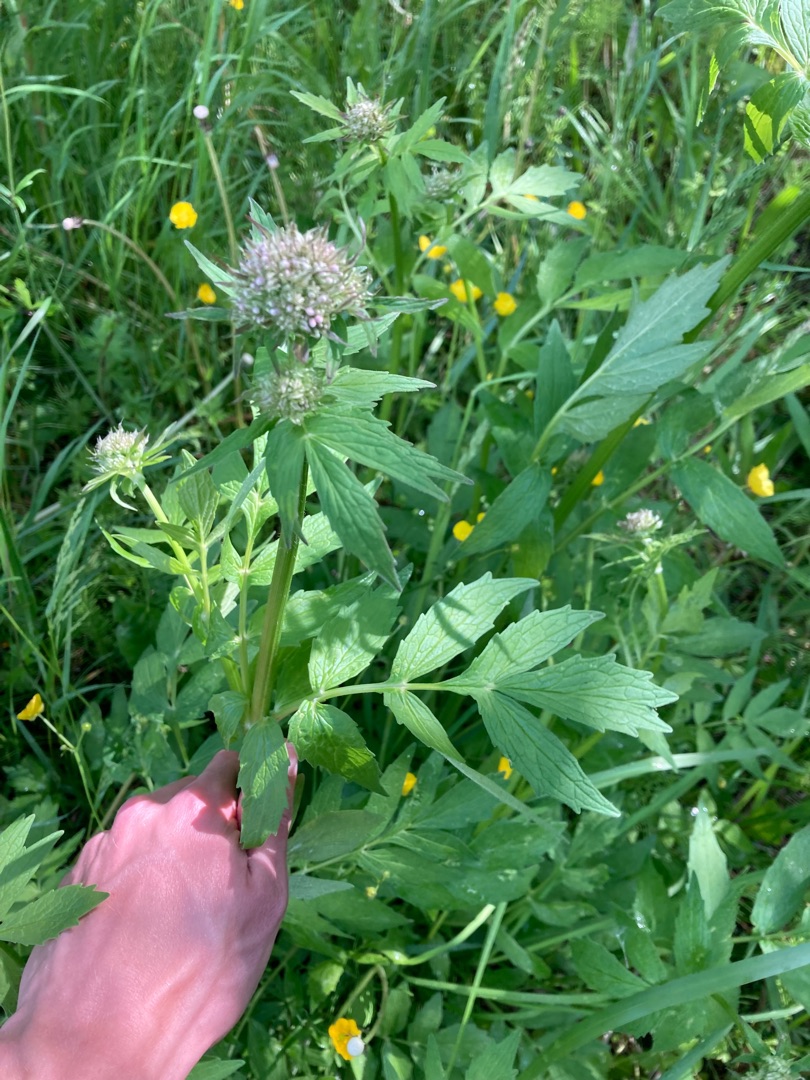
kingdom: Plantae
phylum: Tracheophyta
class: Magnoliopsida
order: Dipsacales
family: Caprifoliaceae
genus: Valeriana
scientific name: Valeriana sambucifolia
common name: Hyldebladet baldrian
